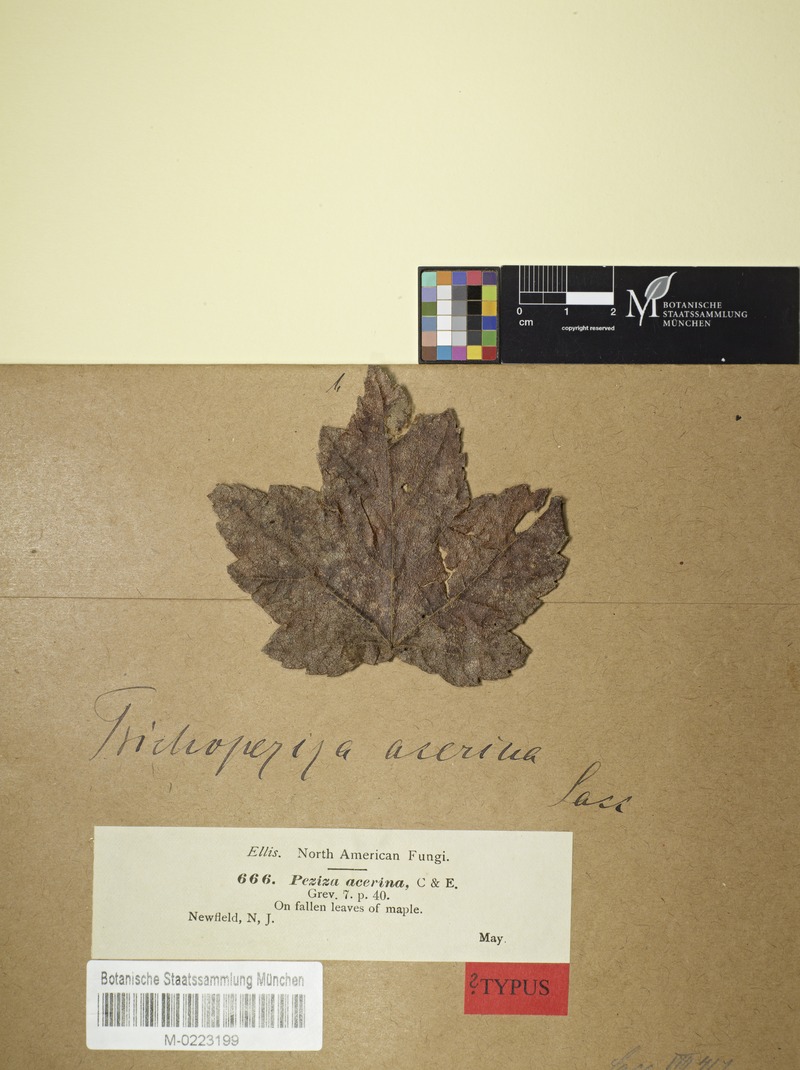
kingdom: Fungi
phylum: Ascomycota
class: Leotiomycetes
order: Helotiales
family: Hyphodiscaceae
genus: Fuscolachnum
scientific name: Fuscolachnum misellum
